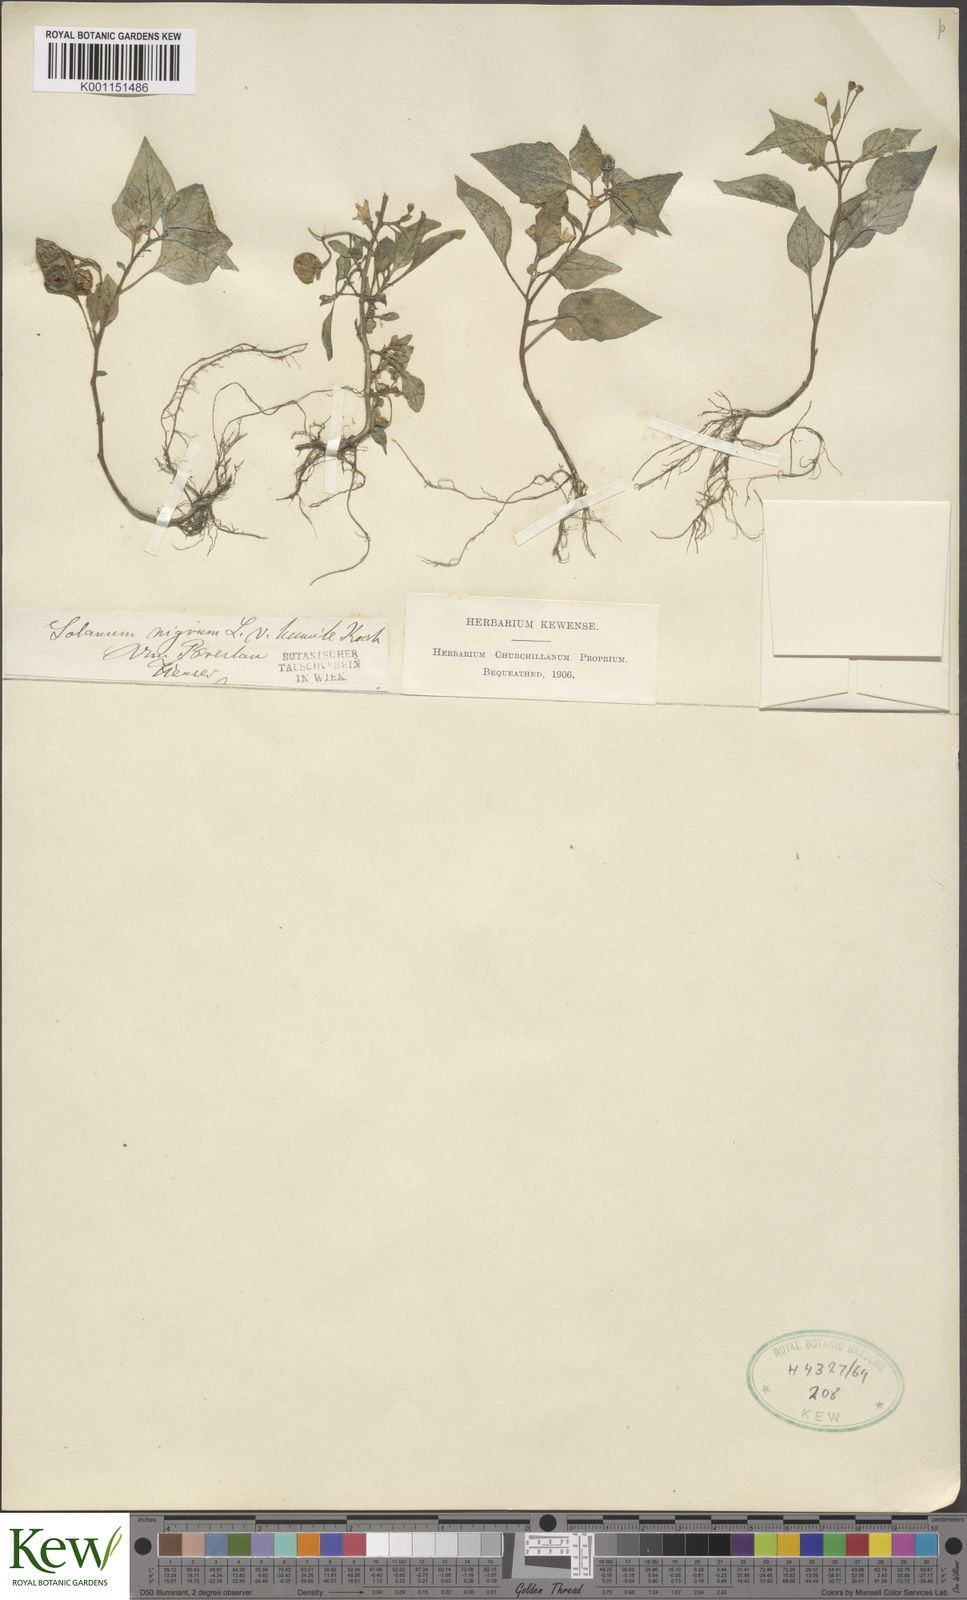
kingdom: Plantae
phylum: Tracheophyta
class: Magnoliopsida
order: Solanales
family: Solanaceae
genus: Solanum
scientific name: Solanum villosum
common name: Red nightshade
